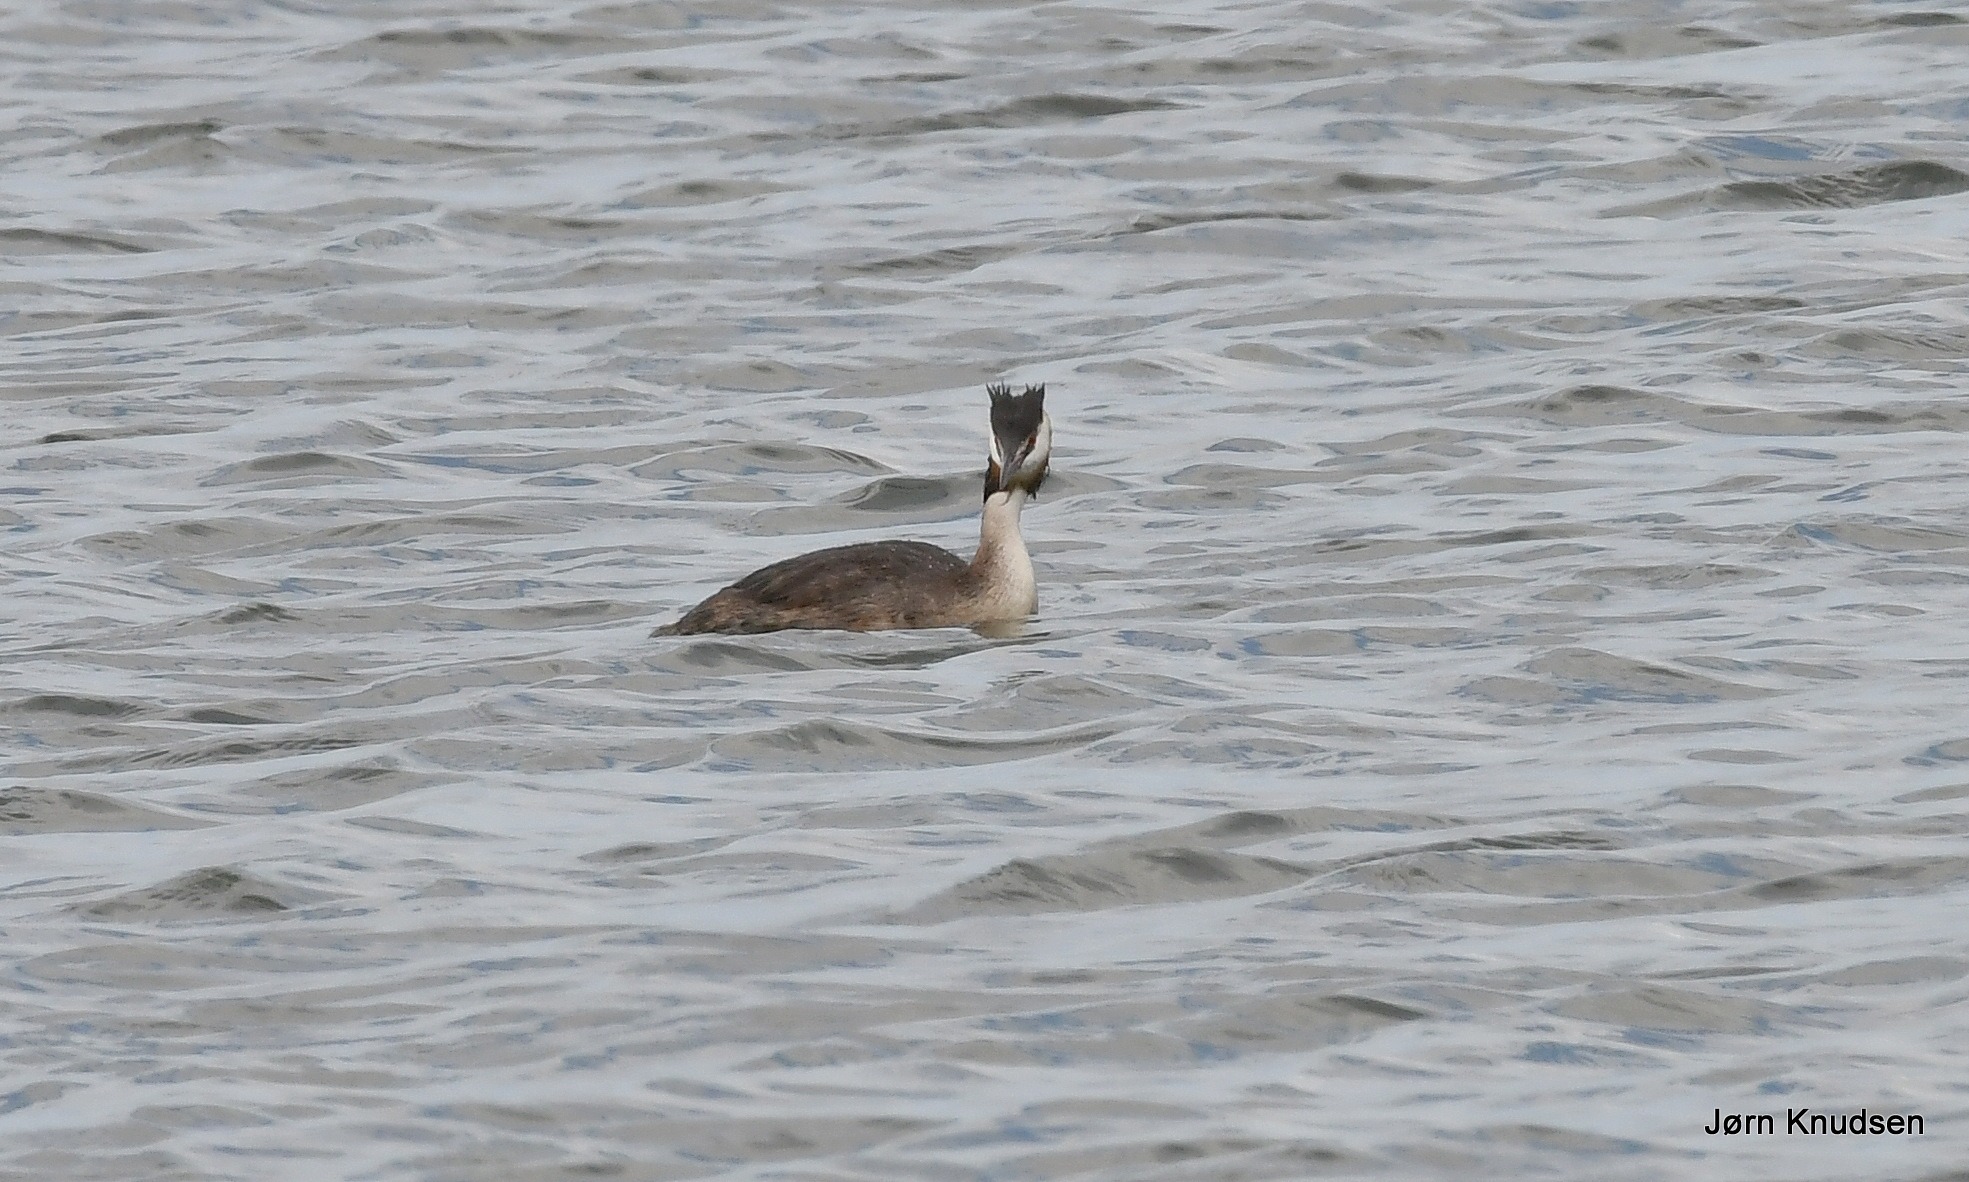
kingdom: Animalia
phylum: Chordata
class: Aves
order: Podicipediformes
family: Podicipedidae
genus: Podiceps
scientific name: Podiceps cristatus
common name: Toppet lappedykker
